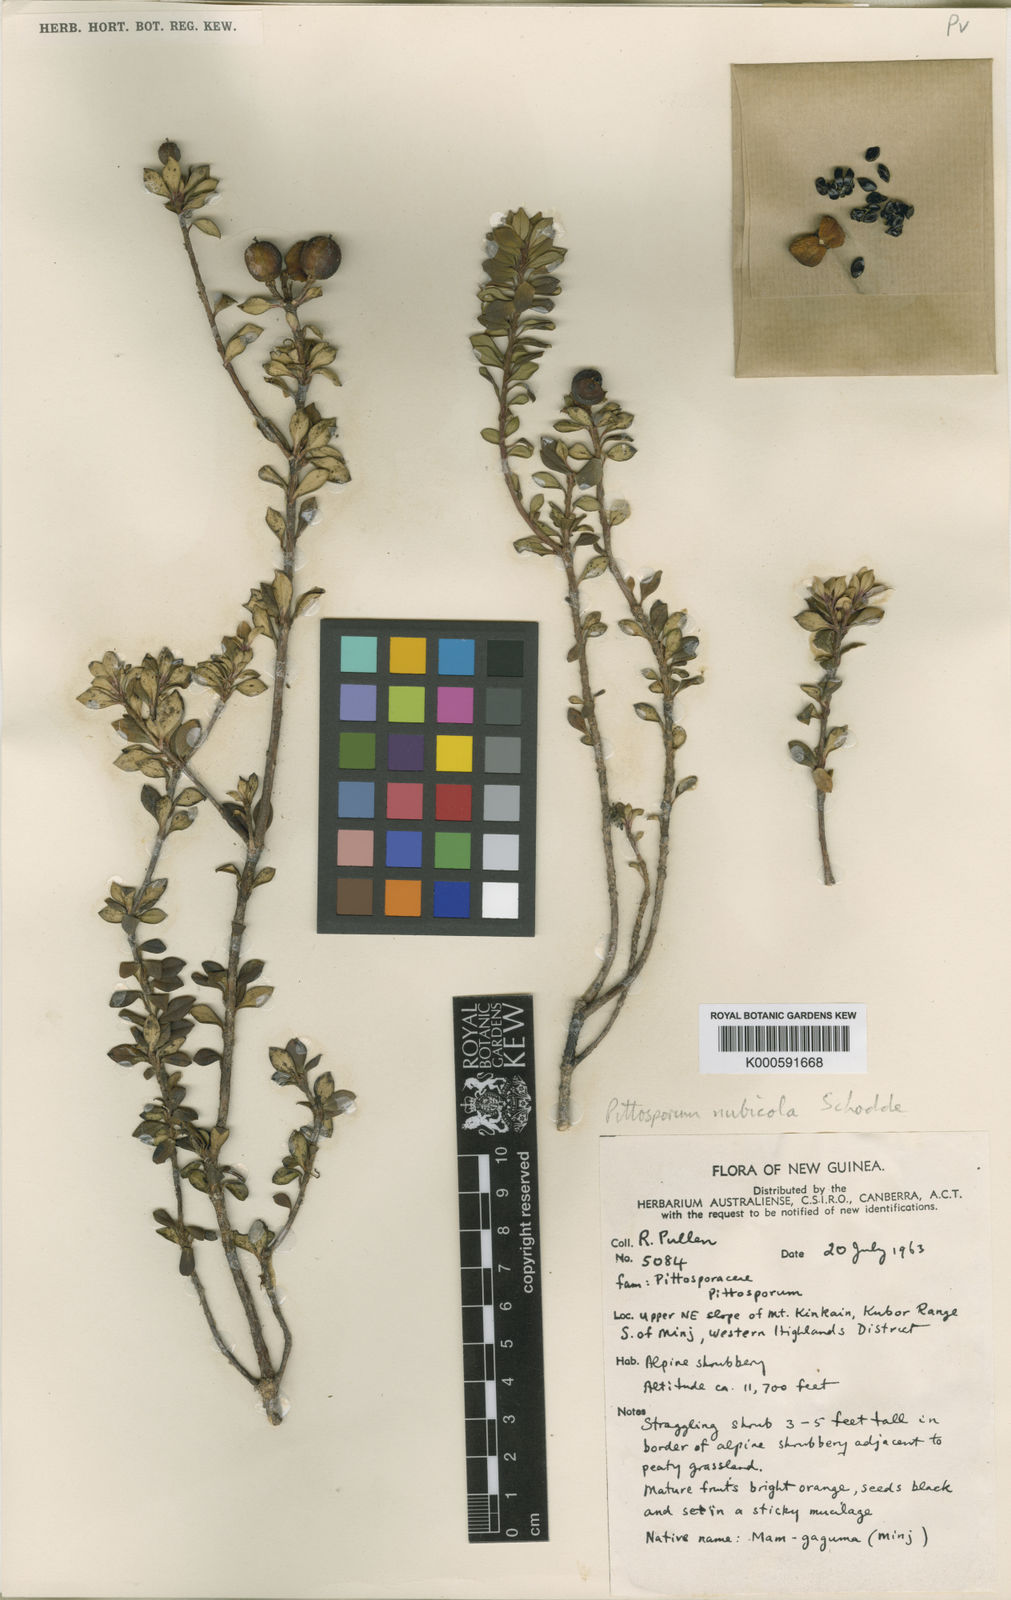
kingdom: Plantae
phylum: Tracheophyta
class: Magnoliopsida
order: Apiales
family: Pittosporaceae
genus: Pittosporum
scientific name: Pittosporum pullifolium
